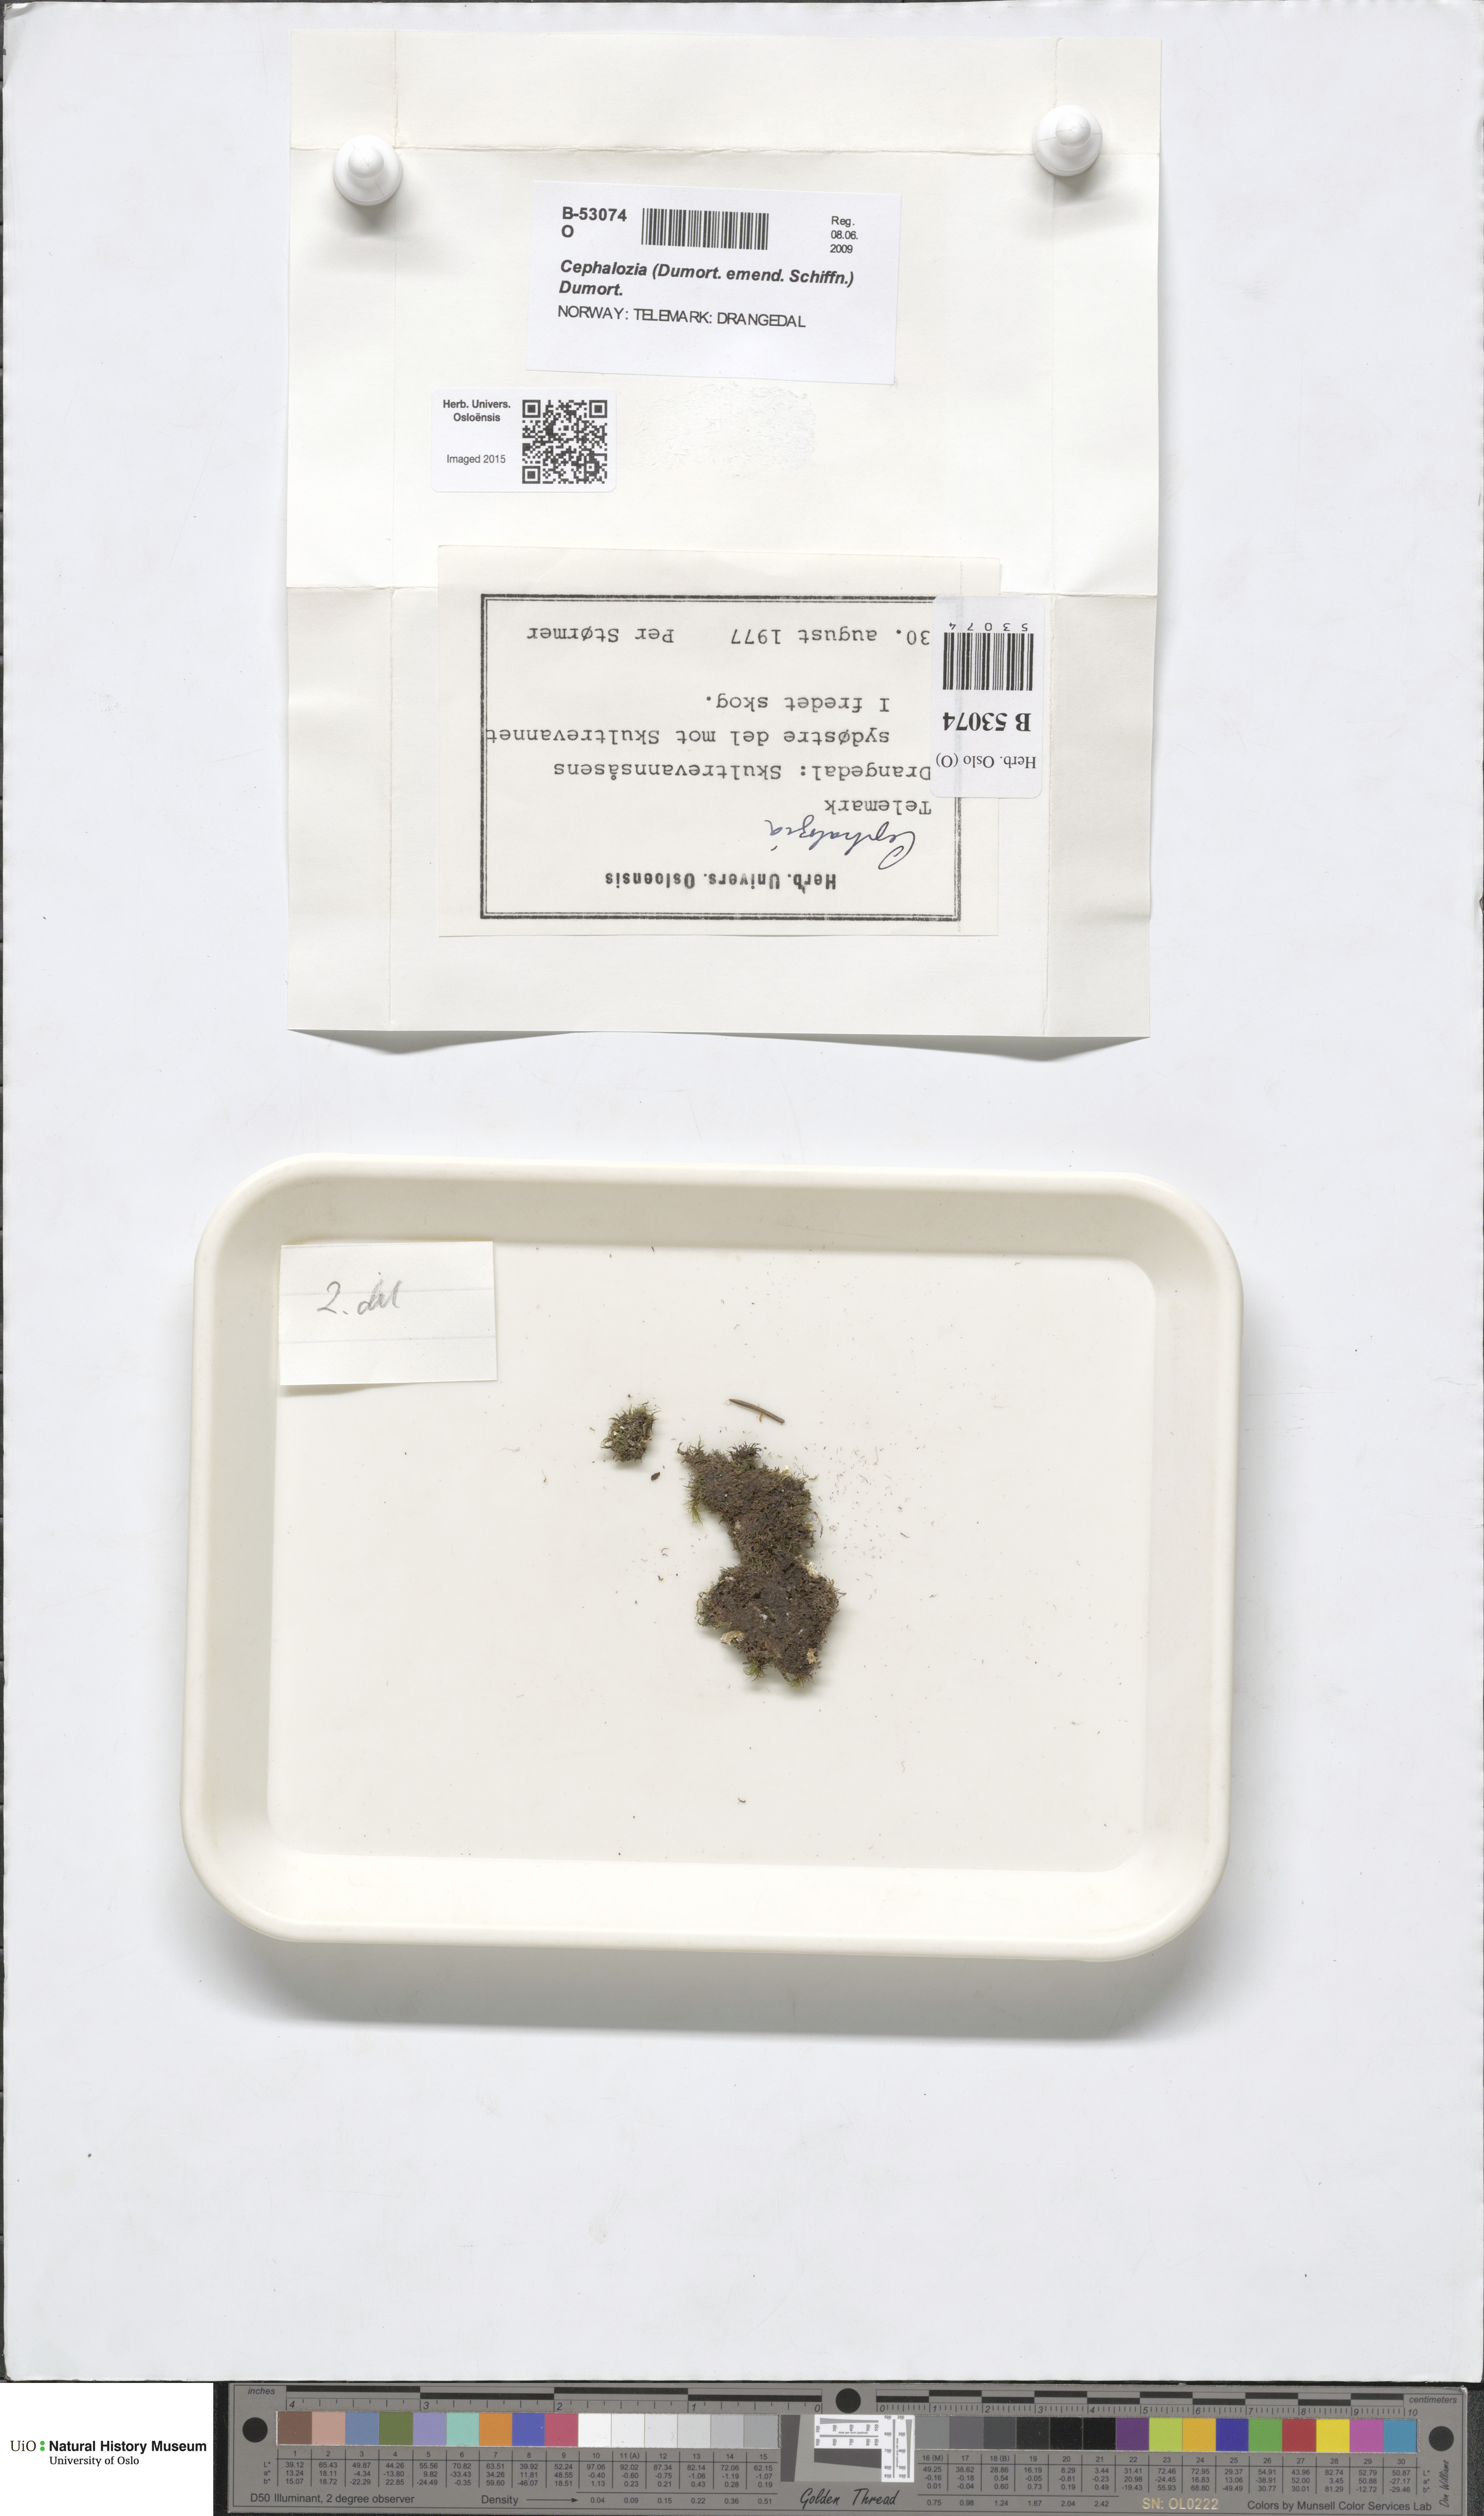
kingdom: Plantae
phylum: Marchantiophyta
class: Jungermanniopsida
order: Jungermanniales
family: Cephaloziaceae
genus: Cephalozia
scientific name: Cephalozia
